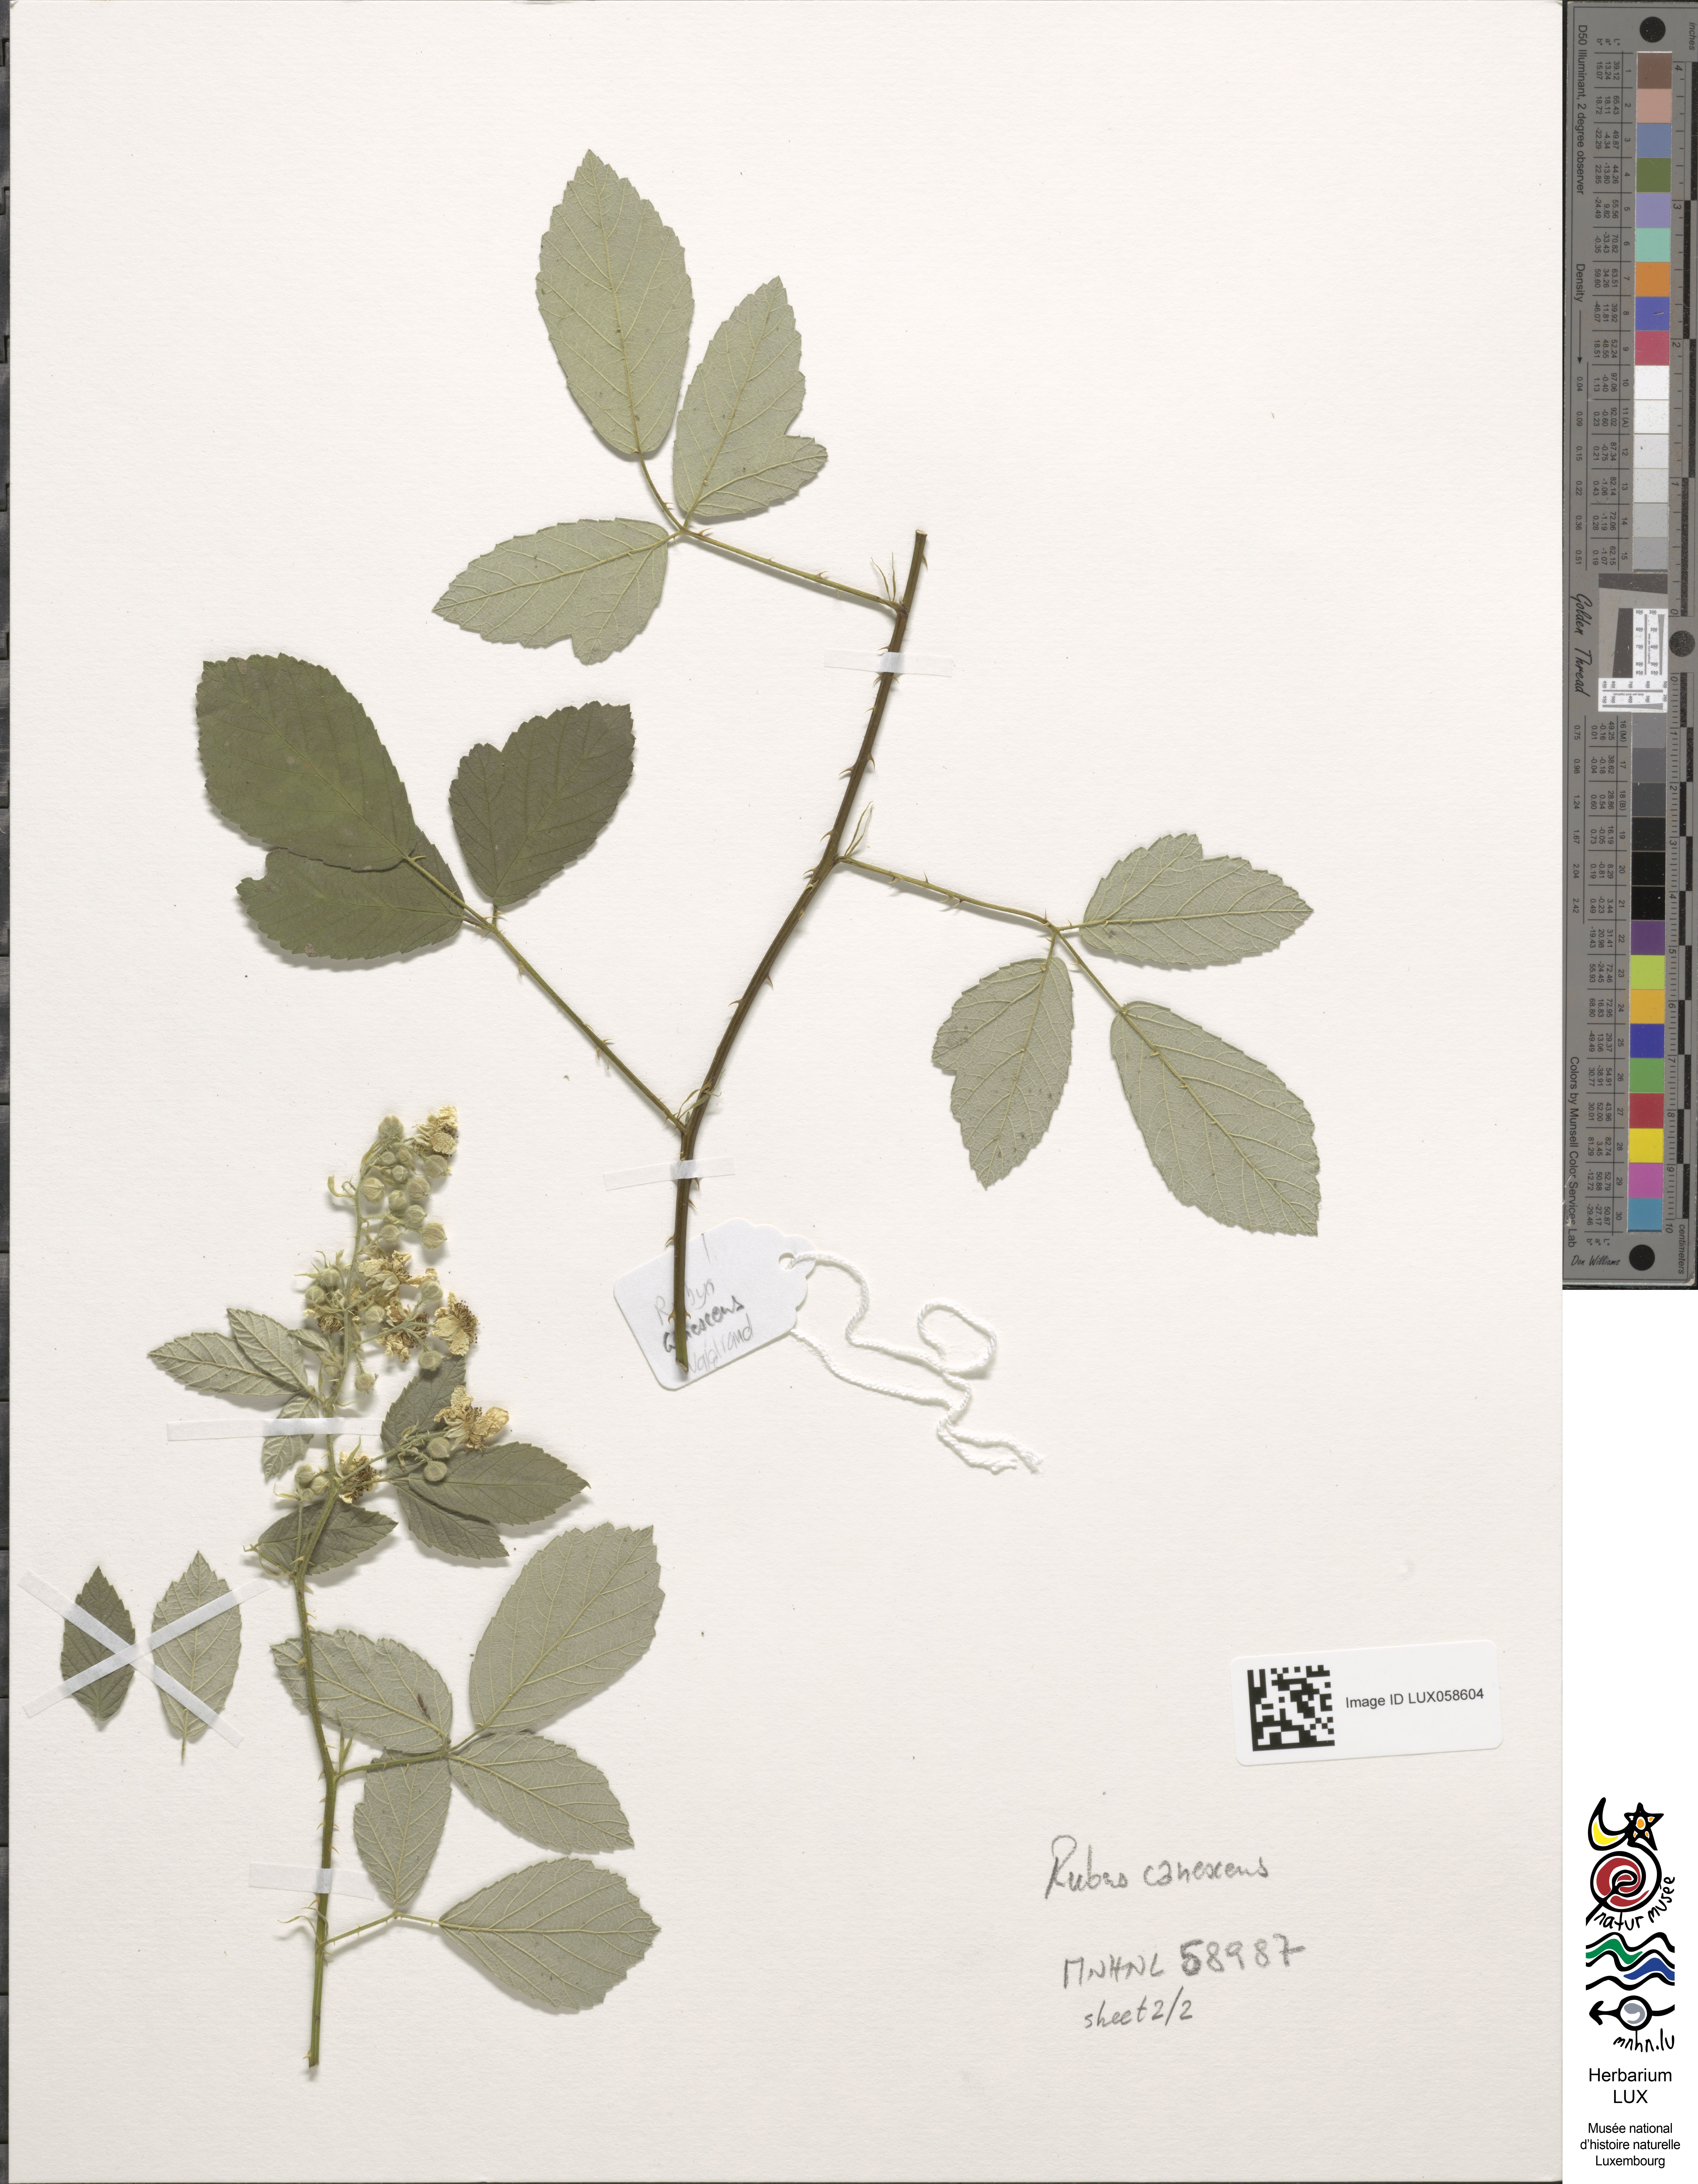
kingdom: Plantae
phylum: Tracheophyta
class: Magnoliopsida
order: Rosales
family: Rosaceae
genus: Rubus
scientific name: Rubus canescens
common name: Wooly blackberry
